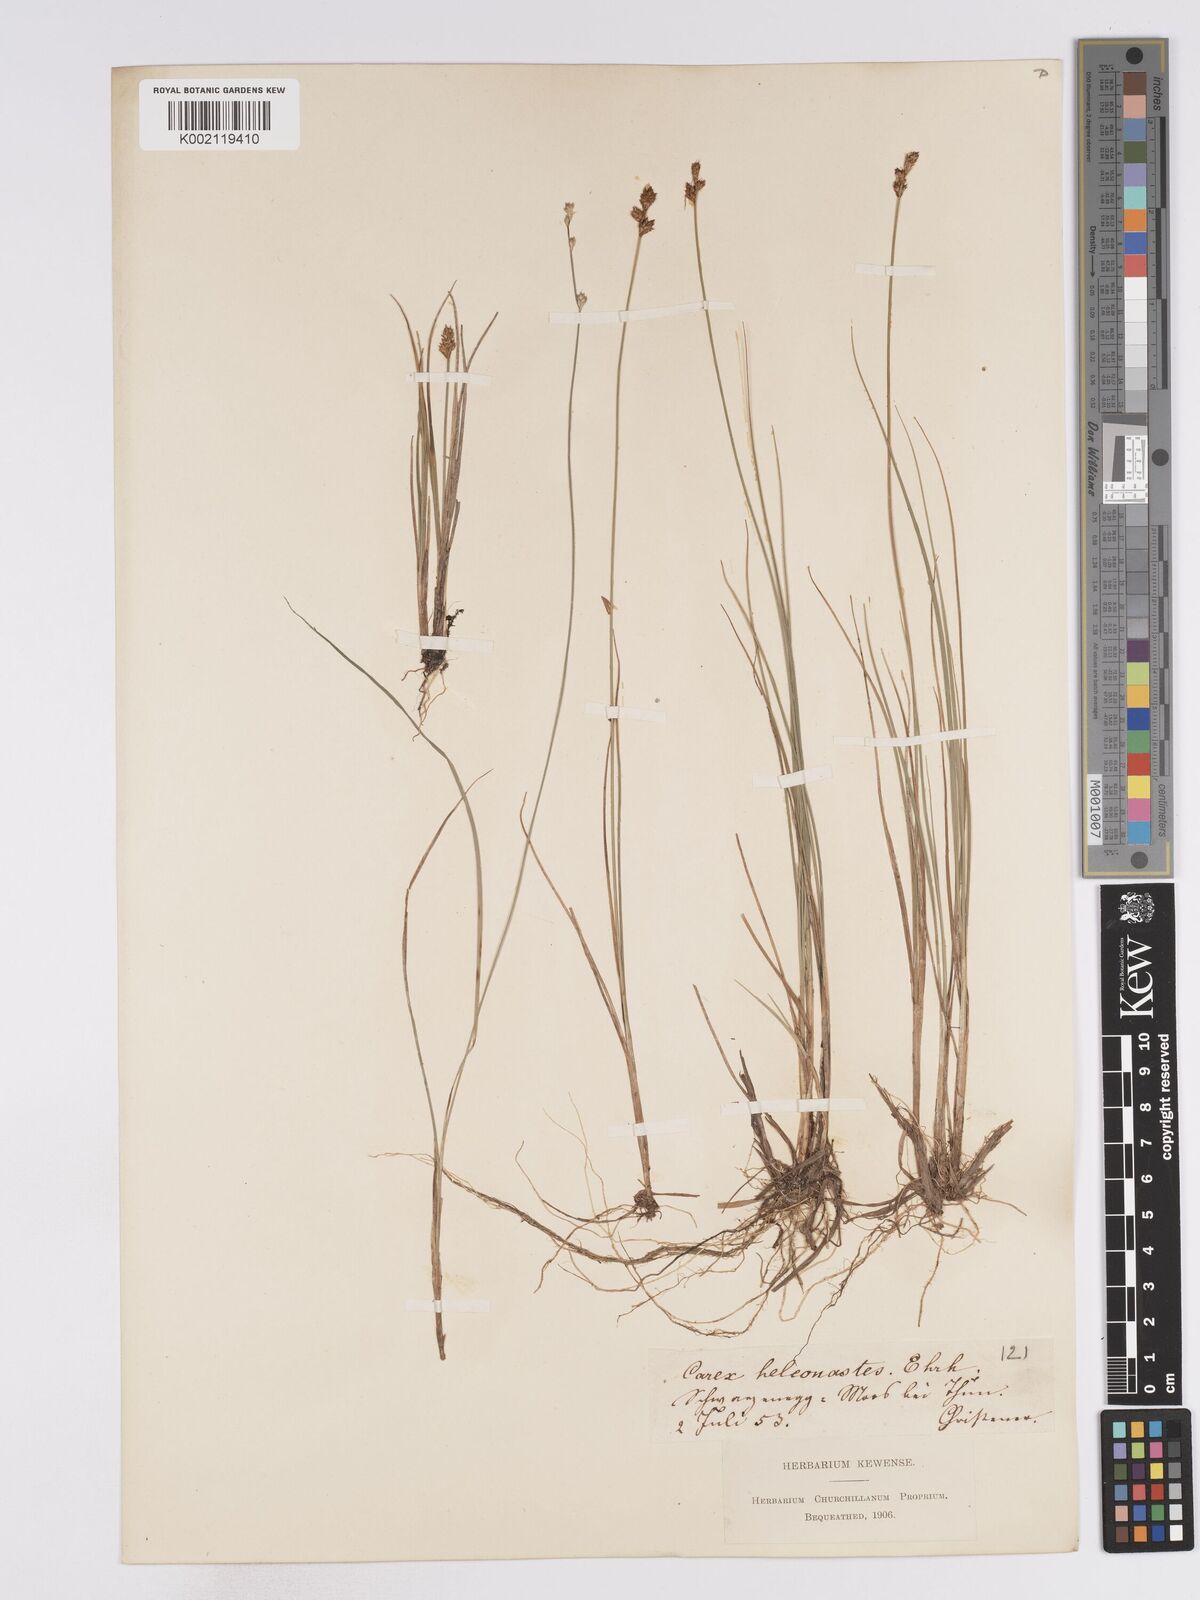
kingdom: Plantae
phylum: Tracheophyta
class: Liliopsida
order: Poales
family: Cyperaceae
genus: Carex
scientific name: Carex heleonastes
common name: Hudson bay sedge
